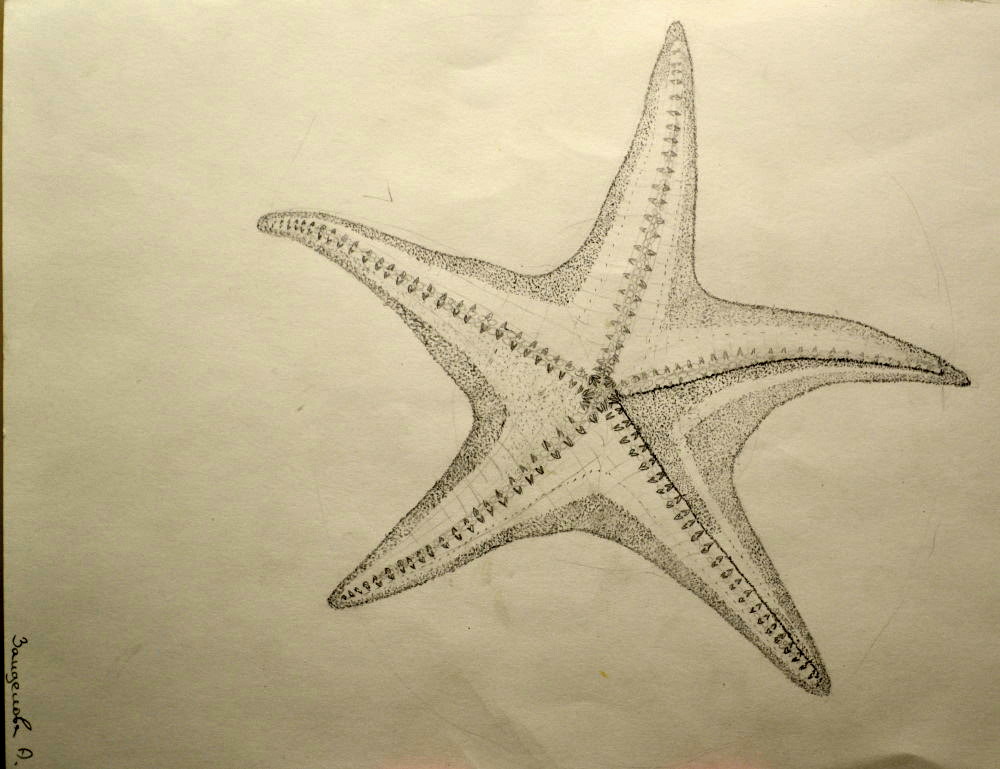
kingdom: Animalia
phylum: Echinodermata
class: Asteroidea
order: Spinulosida
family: Echinasteridae
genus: Henricia
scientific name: Henricia
